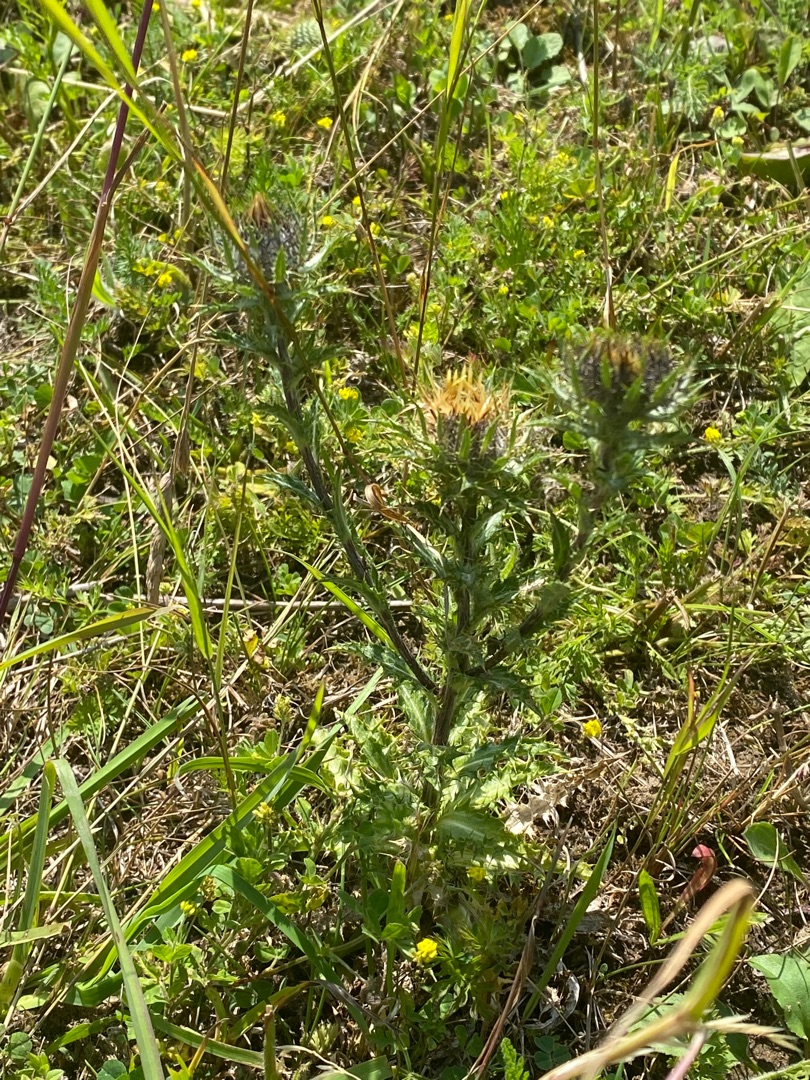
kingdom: Plantae
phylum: Tracheophyta
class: Magnoliopsida
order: Asterales
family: Asteraceae
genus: Carlina
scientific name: Carlina vulgaris
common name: Bakketidsel
